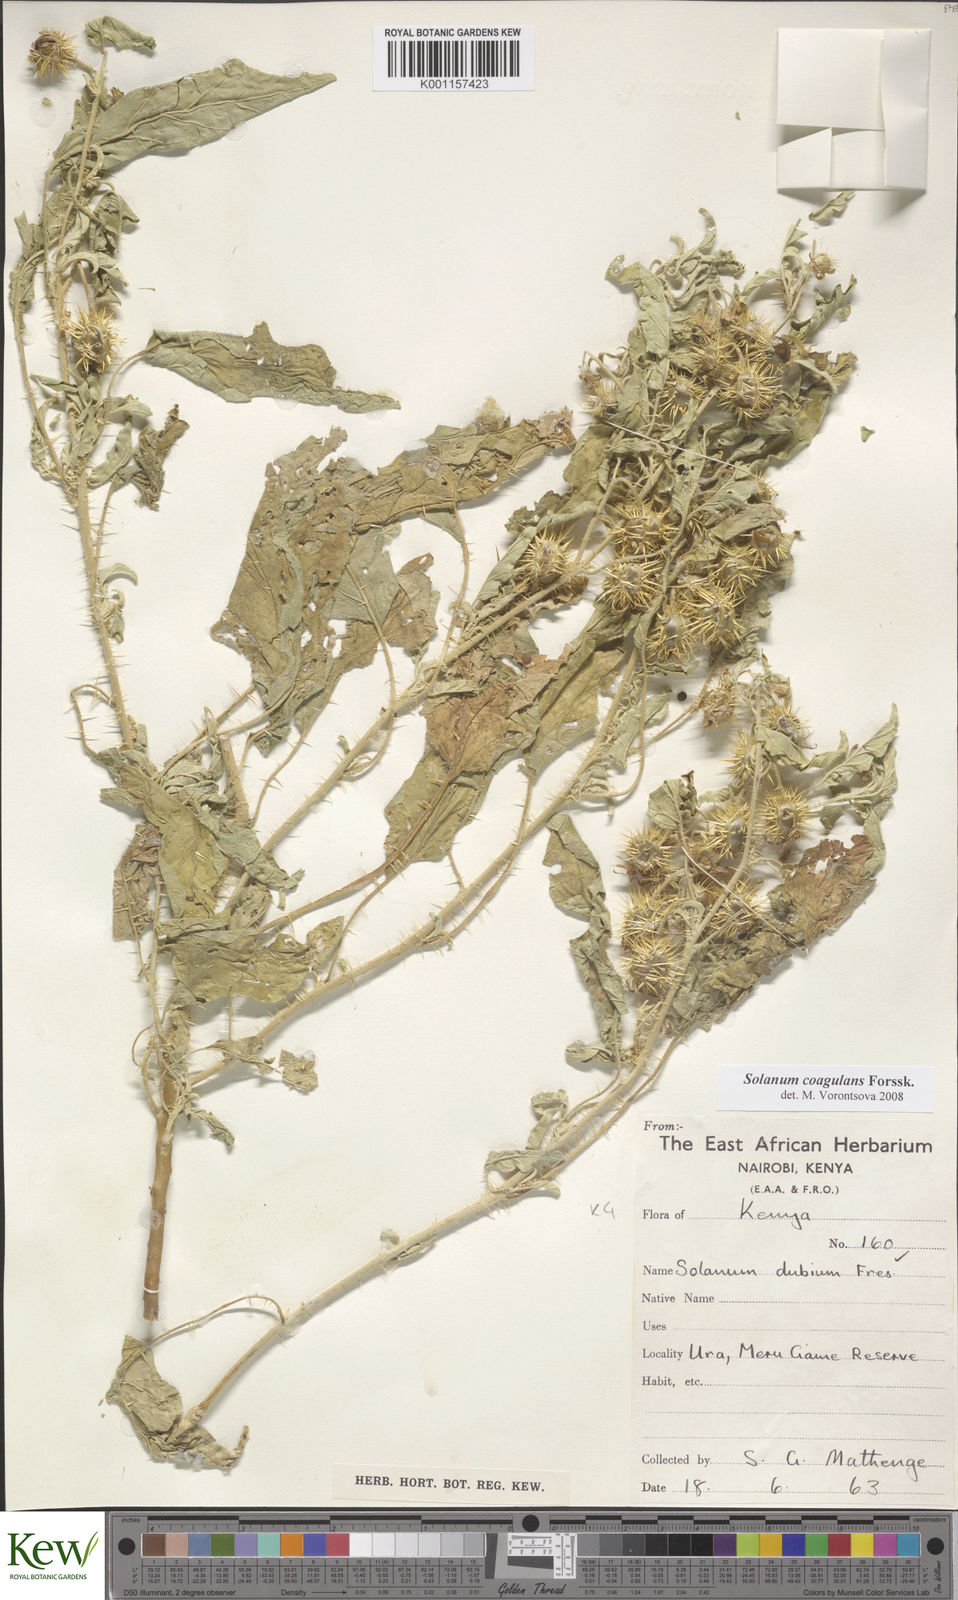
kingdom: Plantae
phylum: Tracheophyta
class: Magnoliopsida
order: Solanales
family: Solanaceae
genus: Solanum
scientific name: Solanum coagulans
